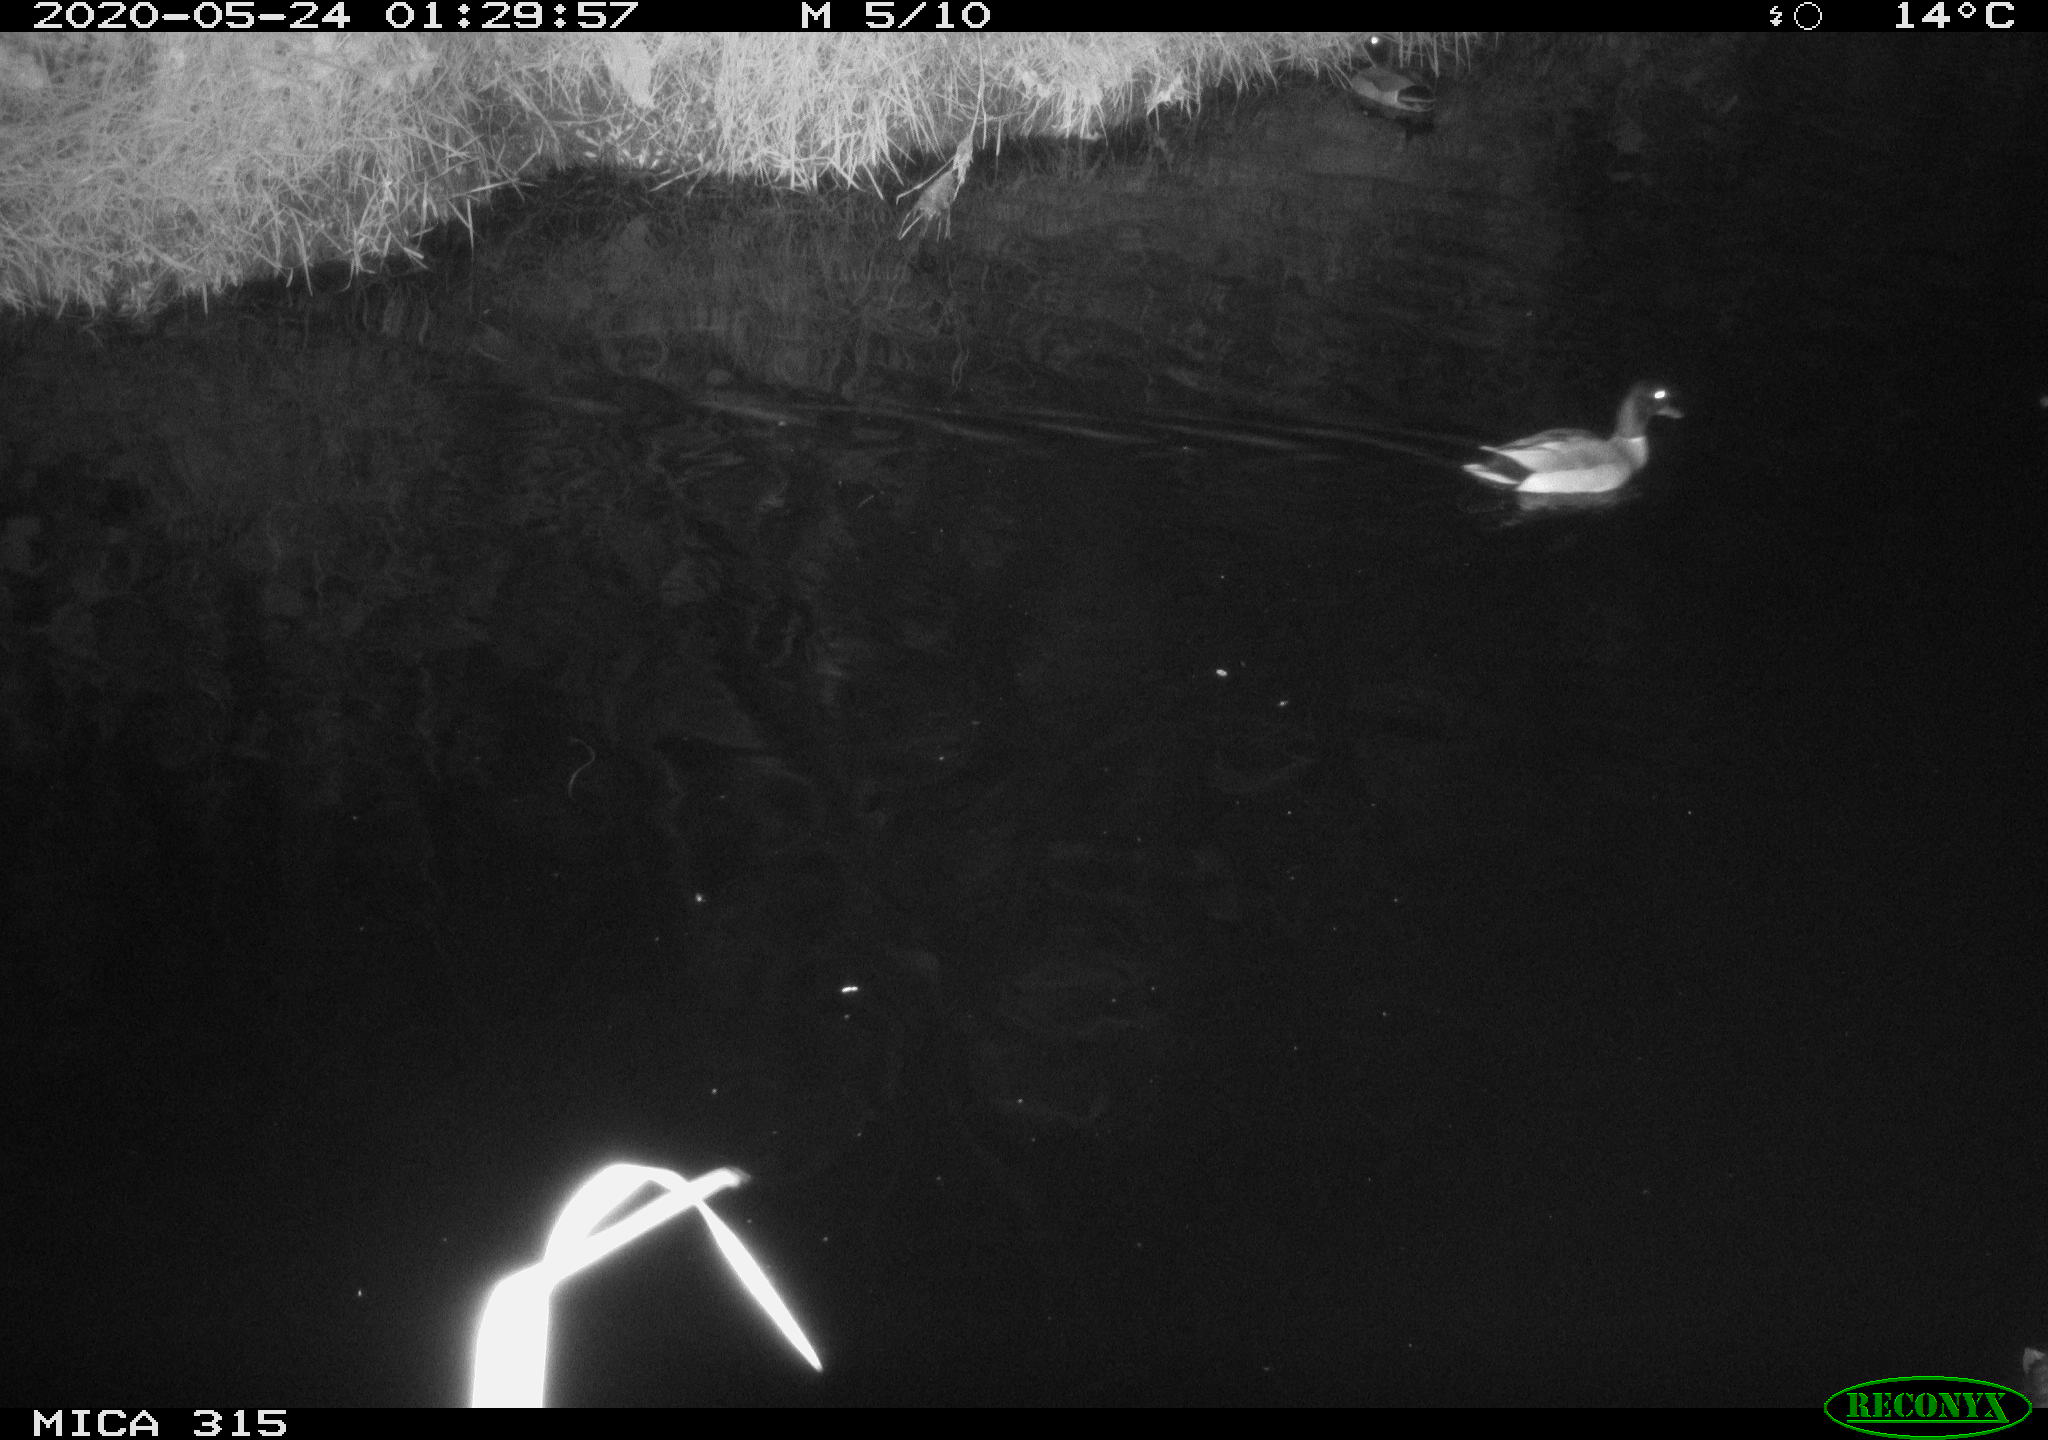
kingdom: Animalia
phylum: Chordata
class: Aves
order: Anseriformes
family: Anatidae
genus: Anas
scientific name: Anas platyrhynchos
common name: Mallard
